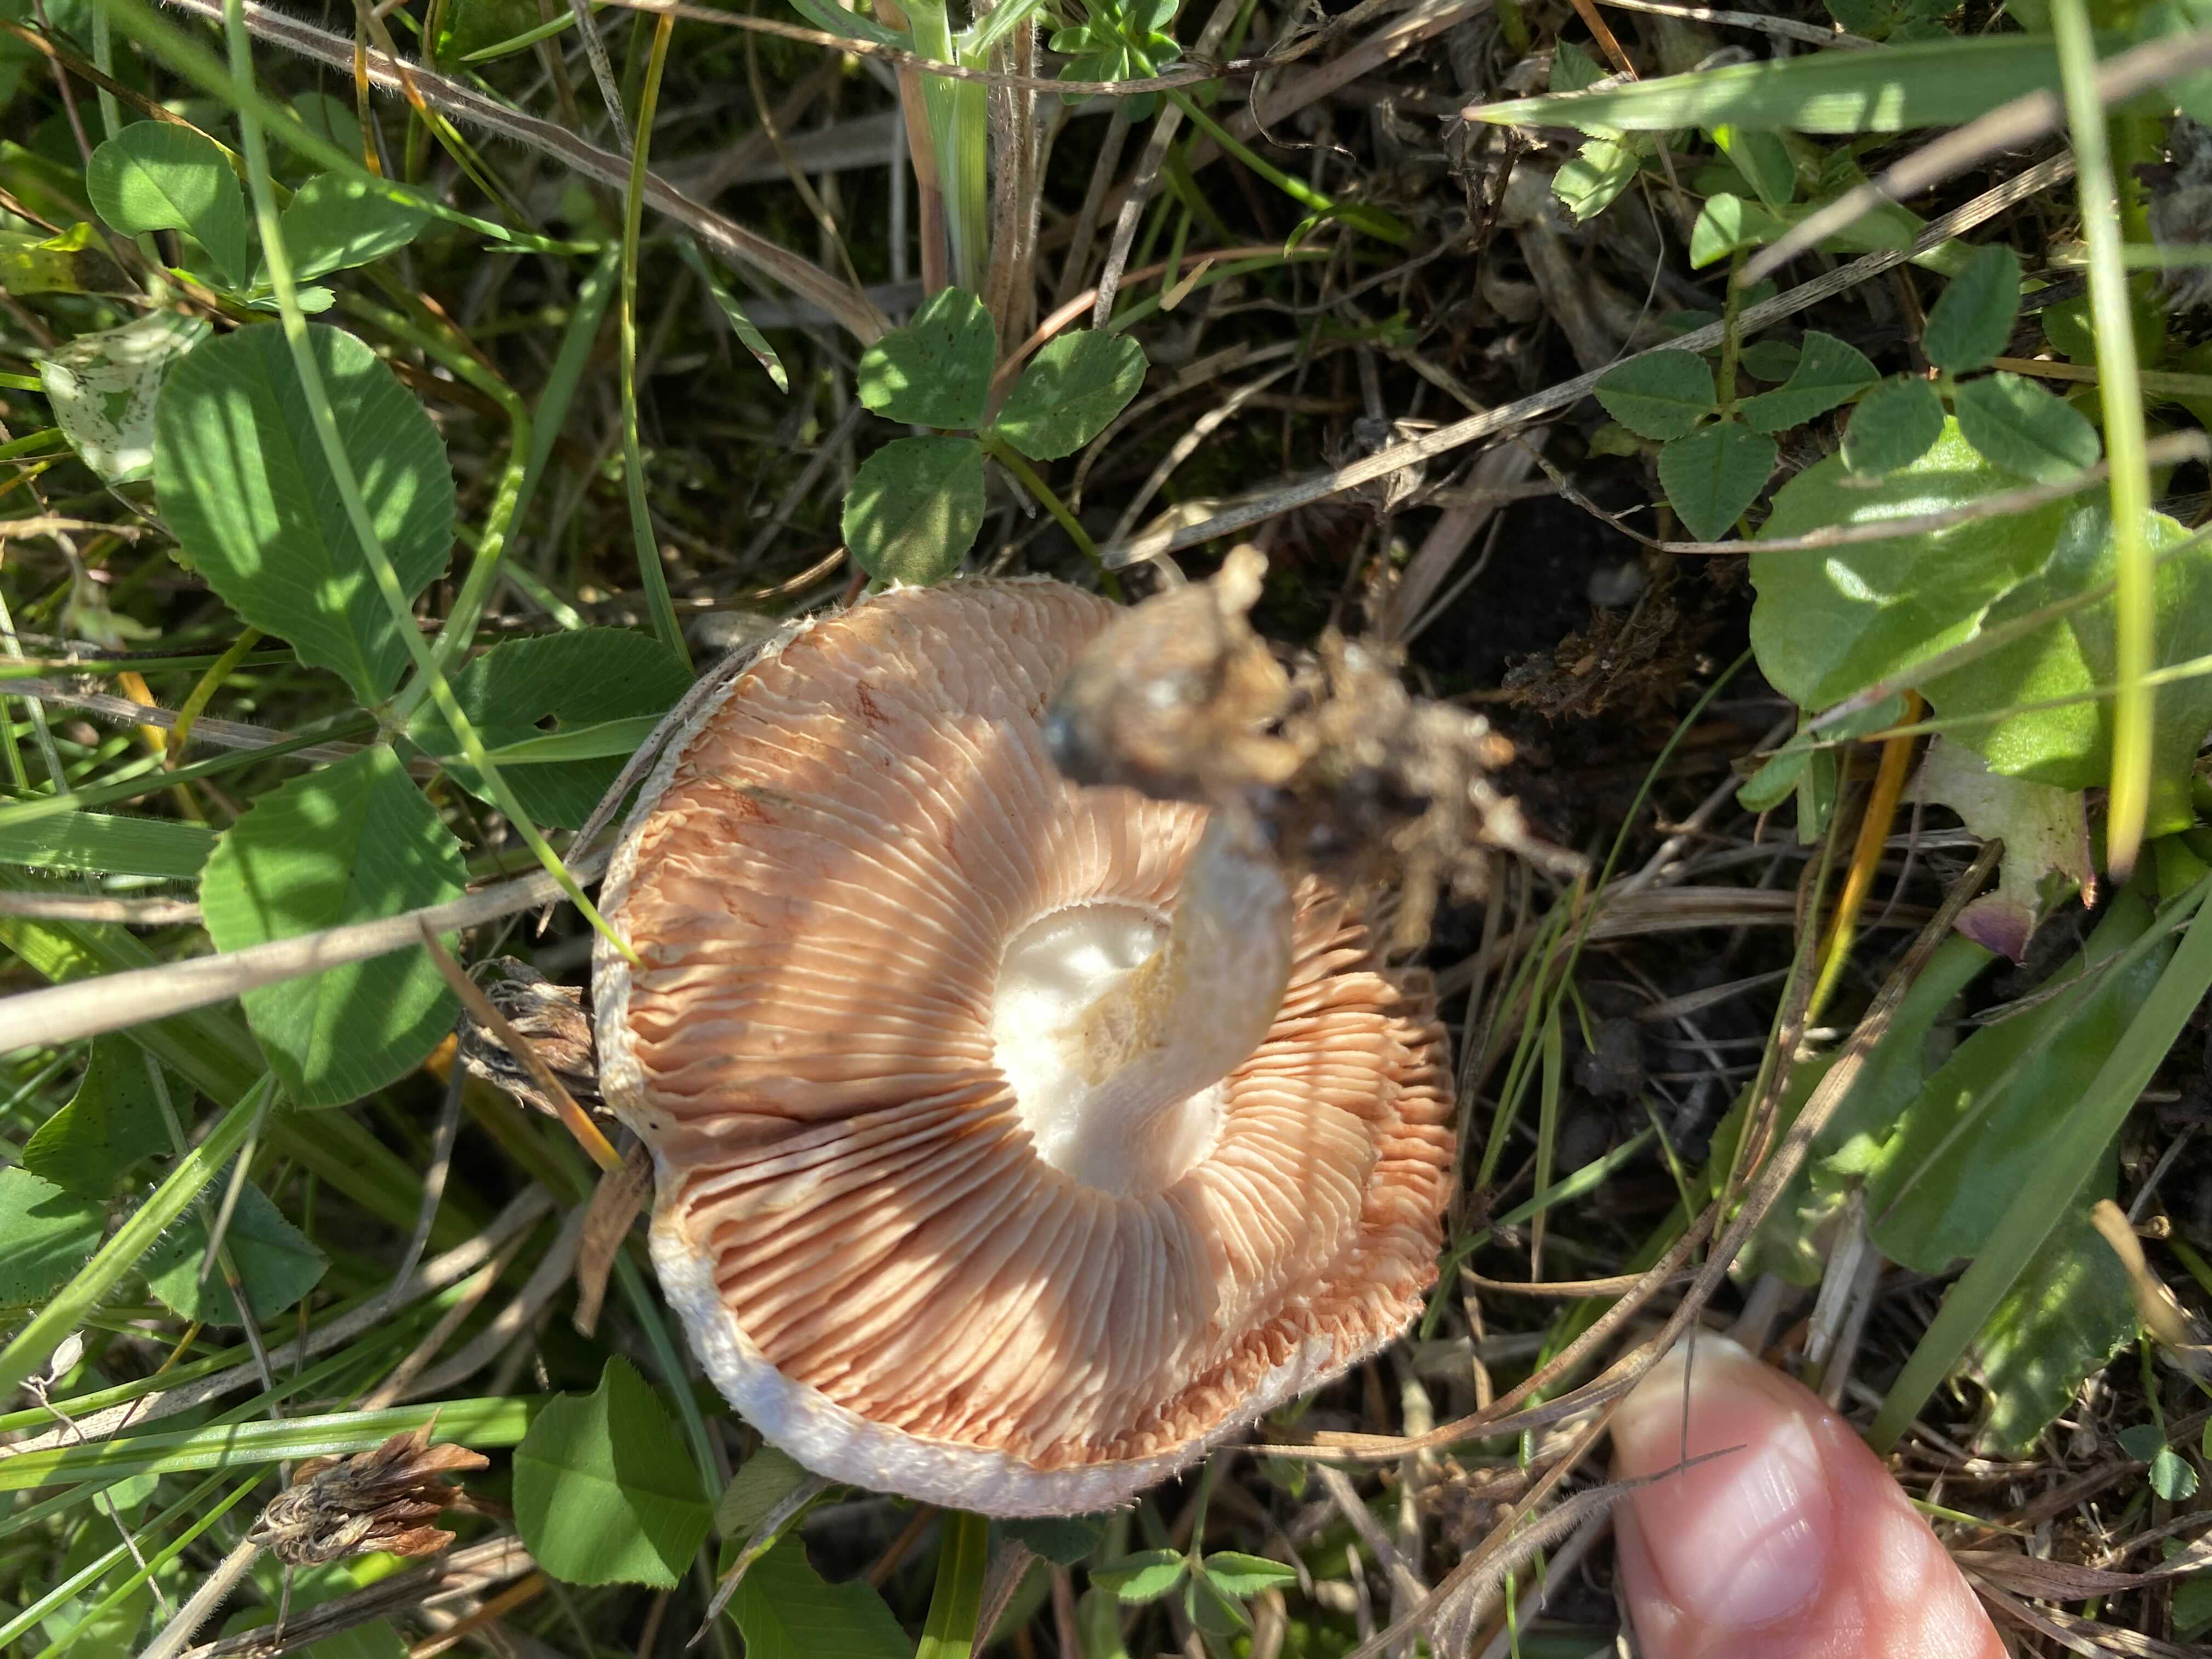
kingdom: Fungi
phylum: Basidiomycota
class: Agaricomycetes
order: Agaricales
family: Pluteaceae
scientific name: Pluteaceae
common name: skærmhatfamilien
